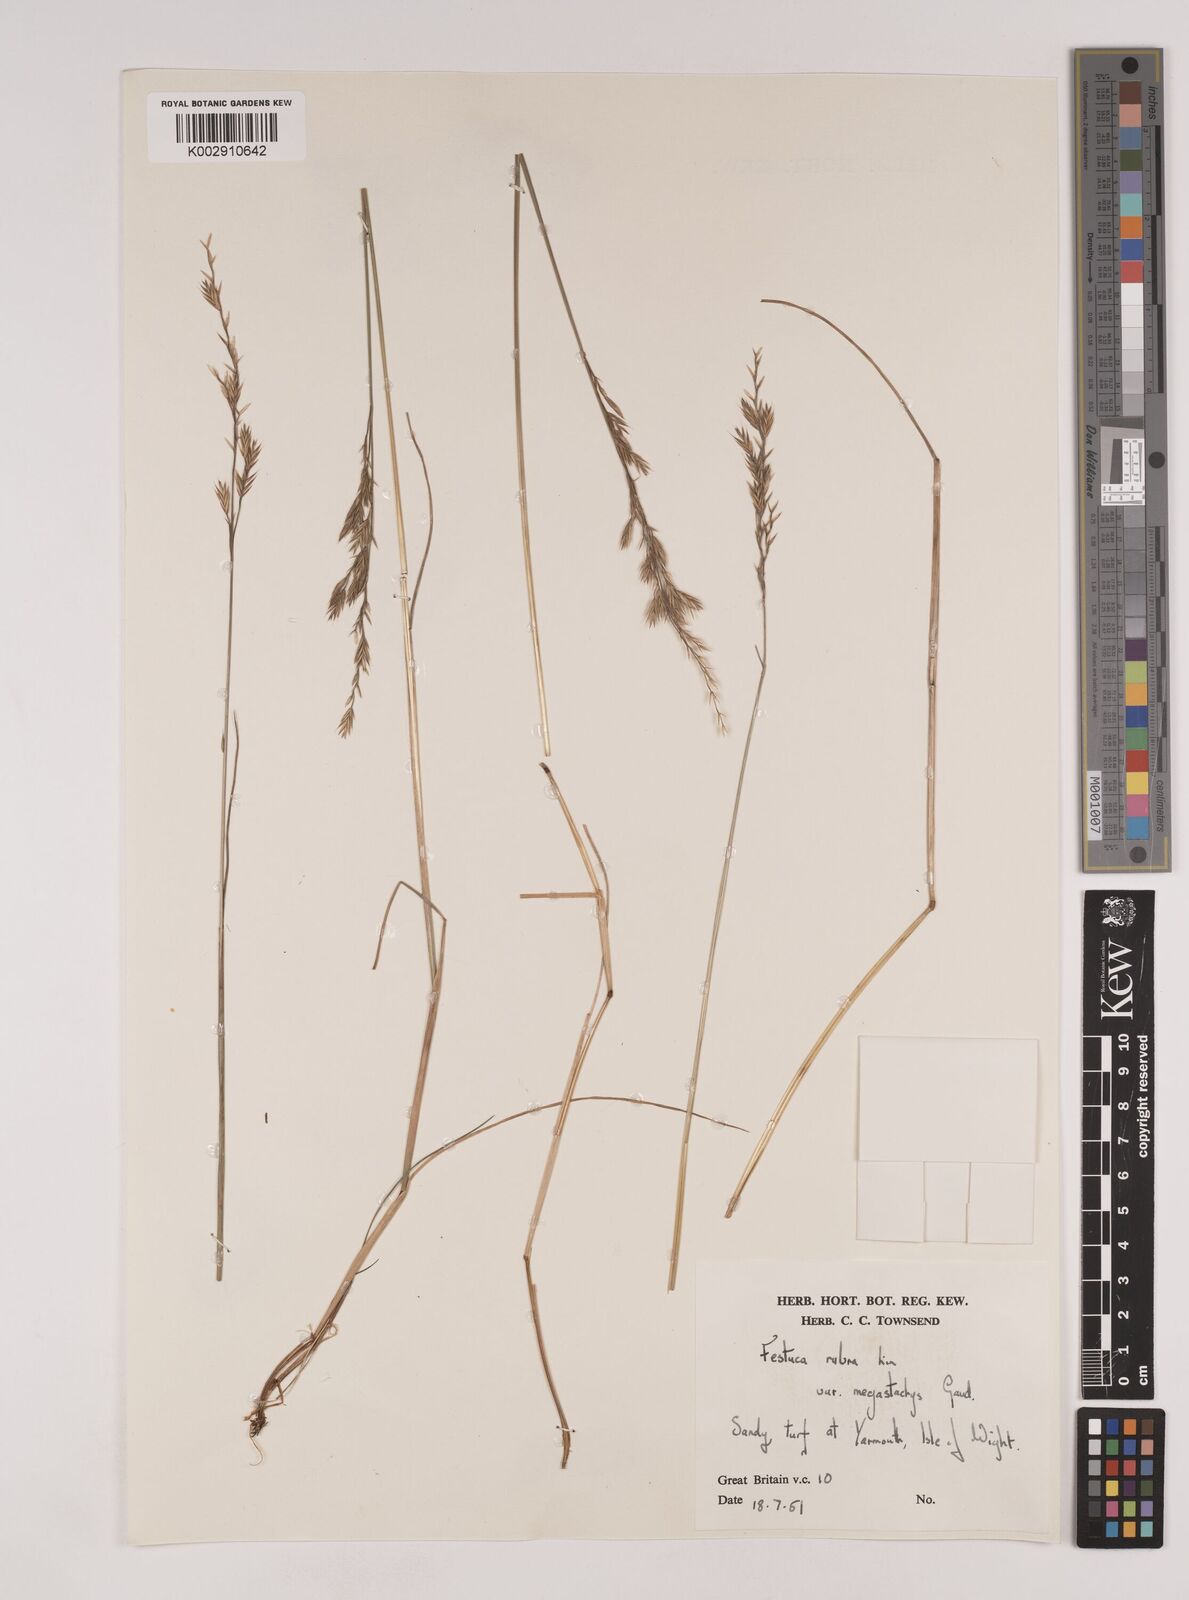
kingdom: Plantae
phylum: Tracheophyta
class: Liliopsida
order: Poales
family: Poaceae
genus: Festuca
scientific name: Festuca rubra
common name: Red fescue
